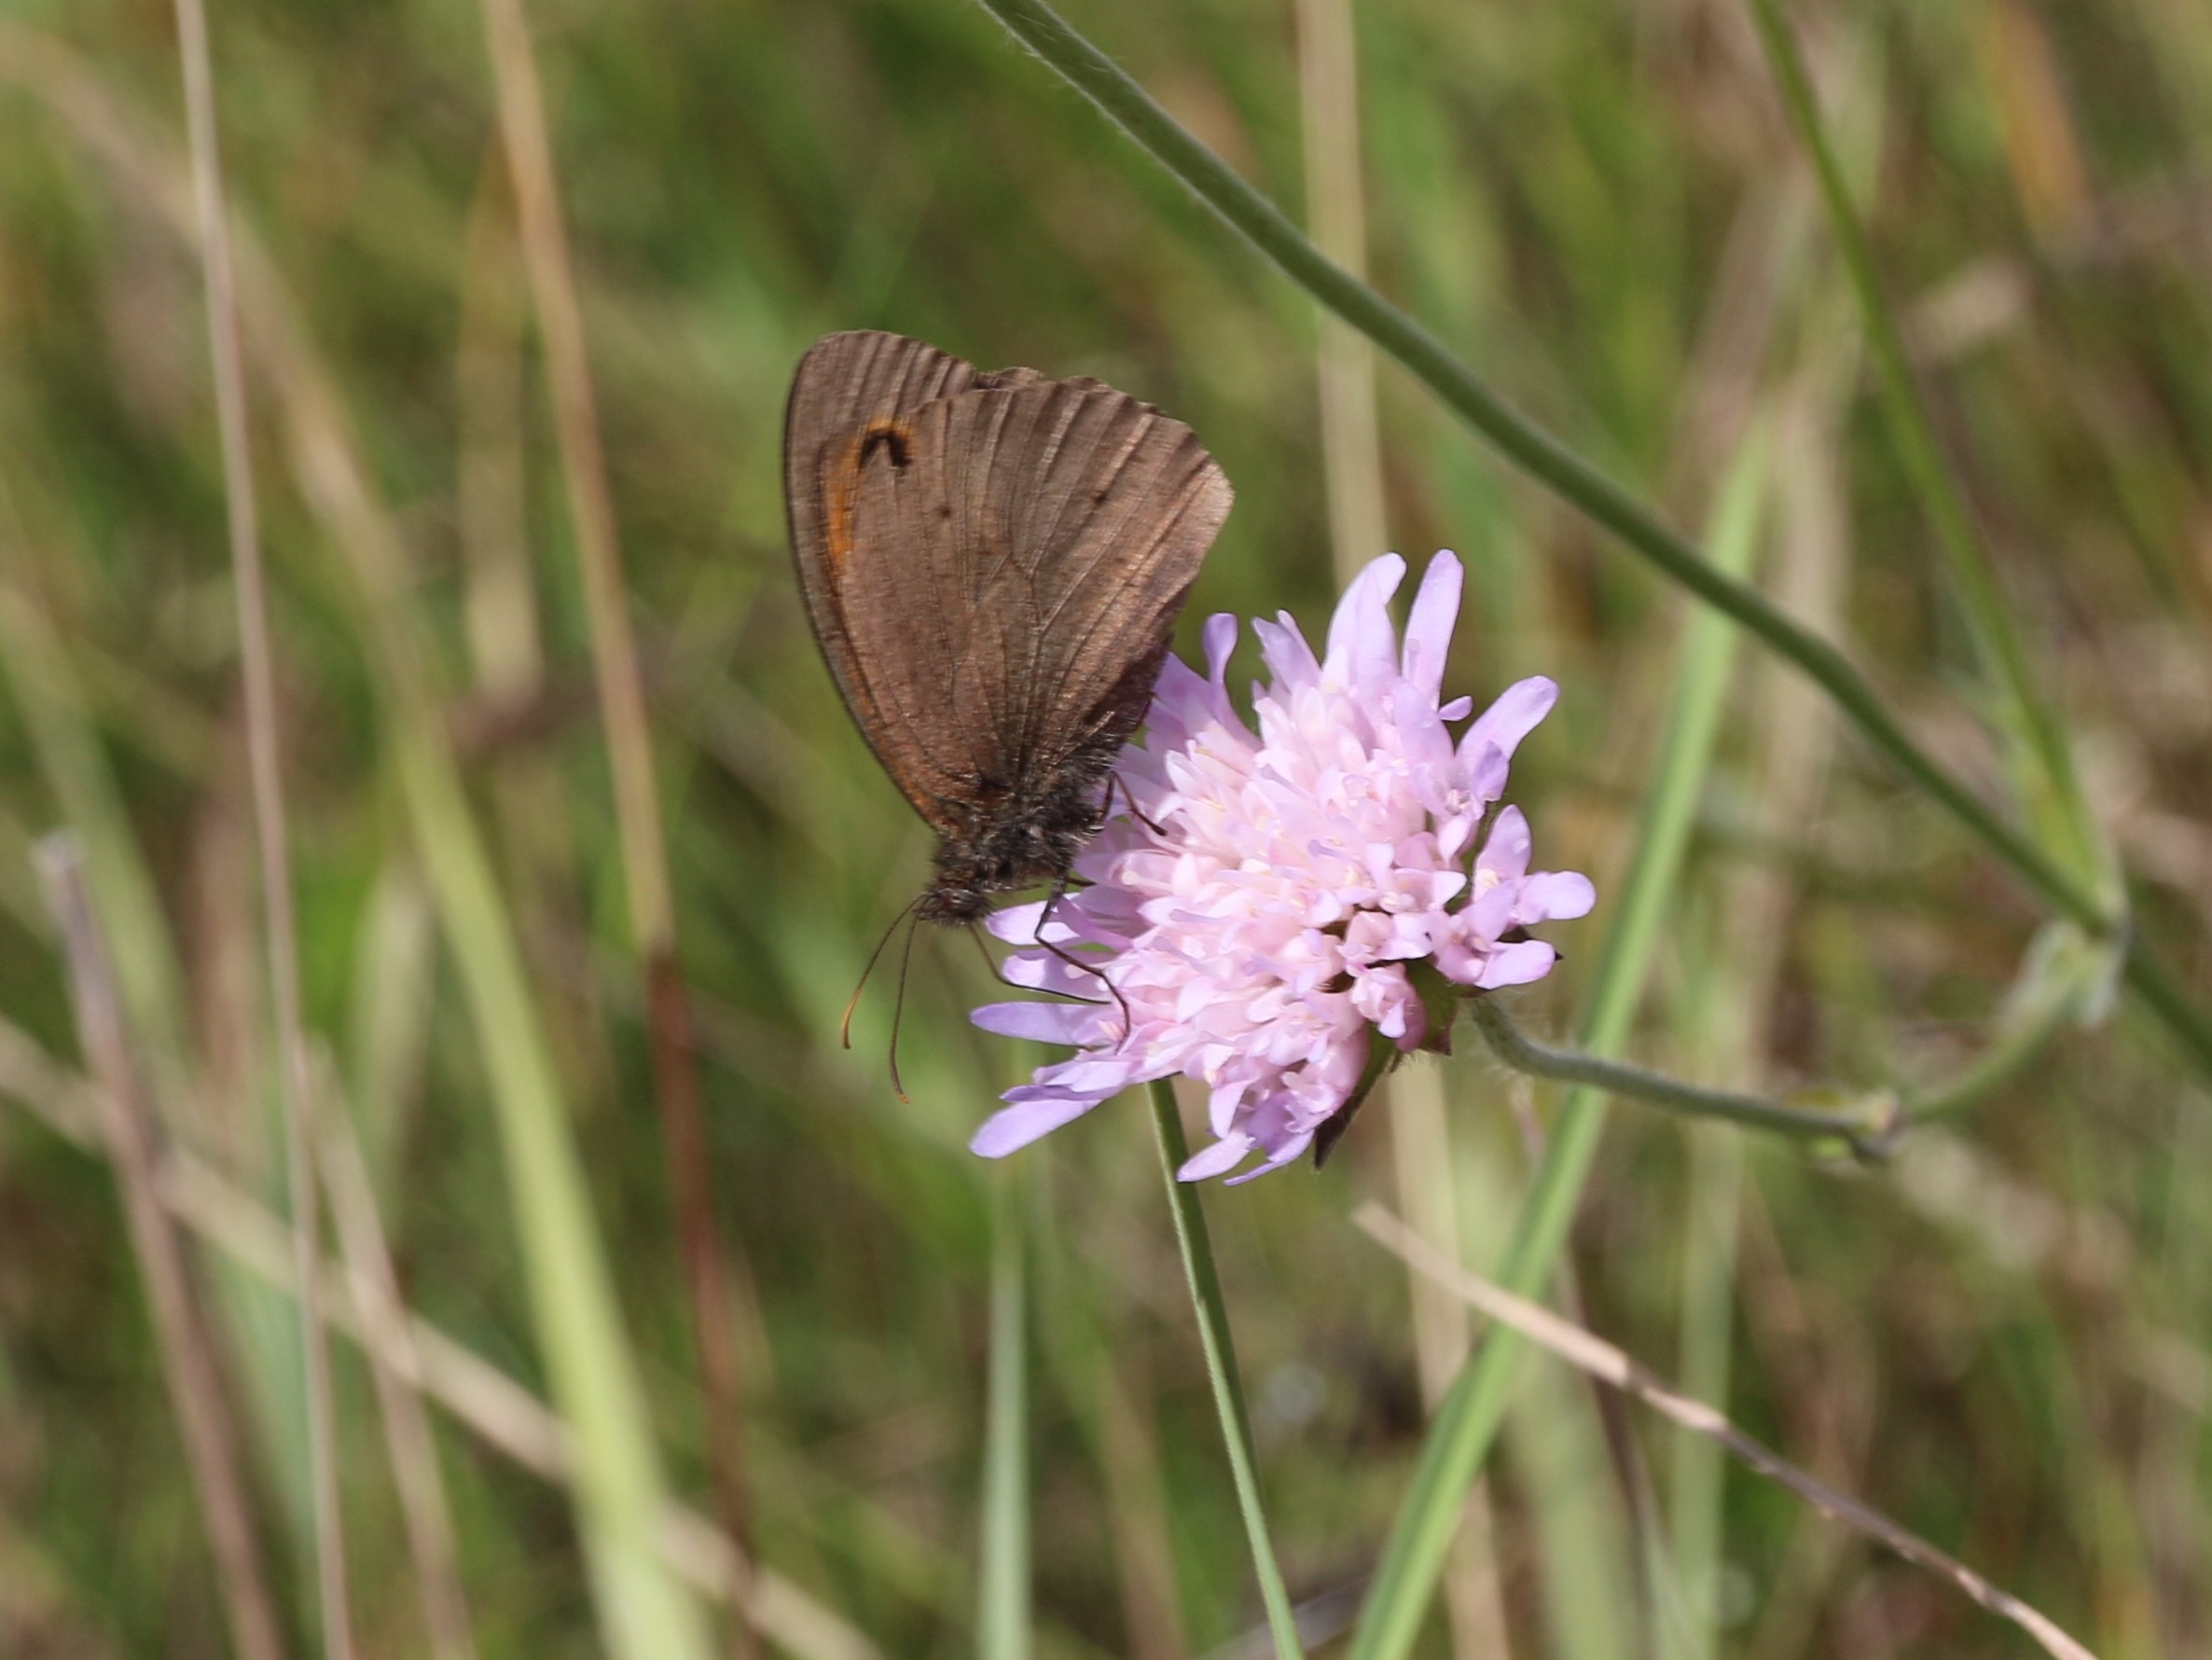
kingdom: Animalia
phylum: Arthropoda
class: Insecta
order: Lepidoptera
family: Nymphalidae
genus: Maniola
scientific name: Maniola jurtina
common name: Græsrandøje
